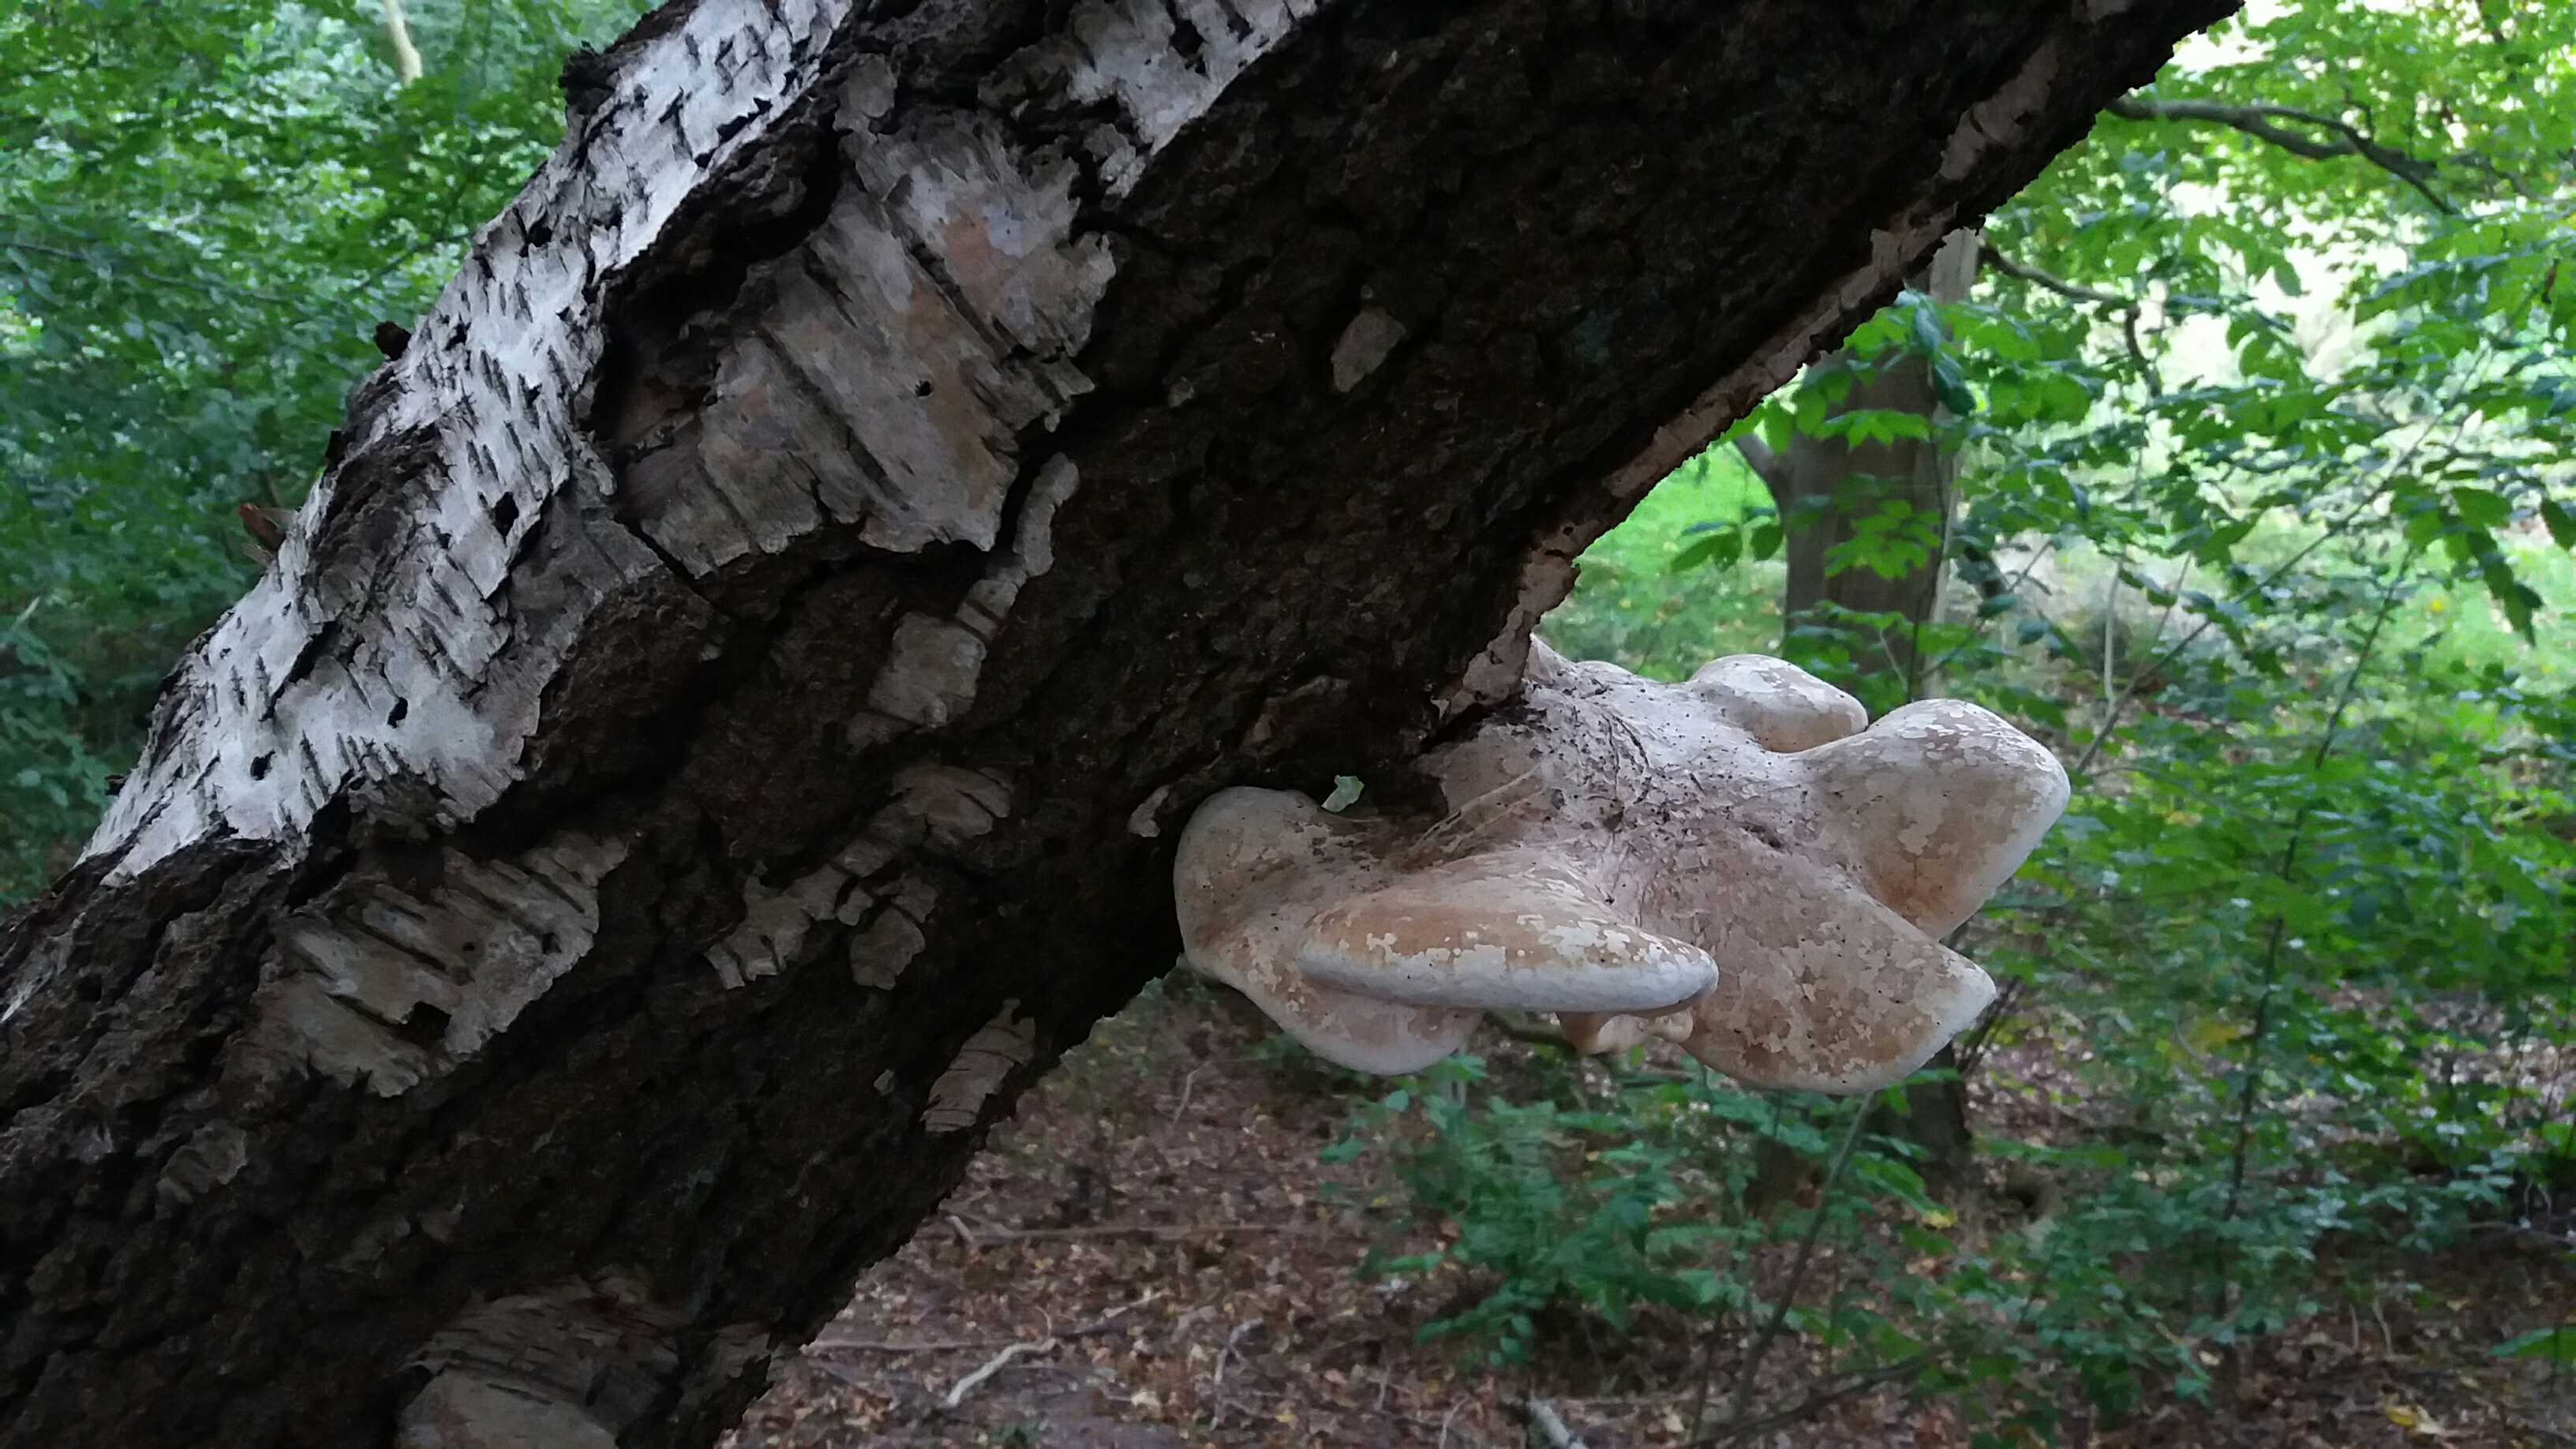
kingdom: Fungi
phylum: Basidiomycota
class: Agaricomycetes
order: Polyporales
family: Fomitopsidaceae
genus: Fomitopsis
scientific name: Fomitopsis betulina
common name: birkeporesvamp
